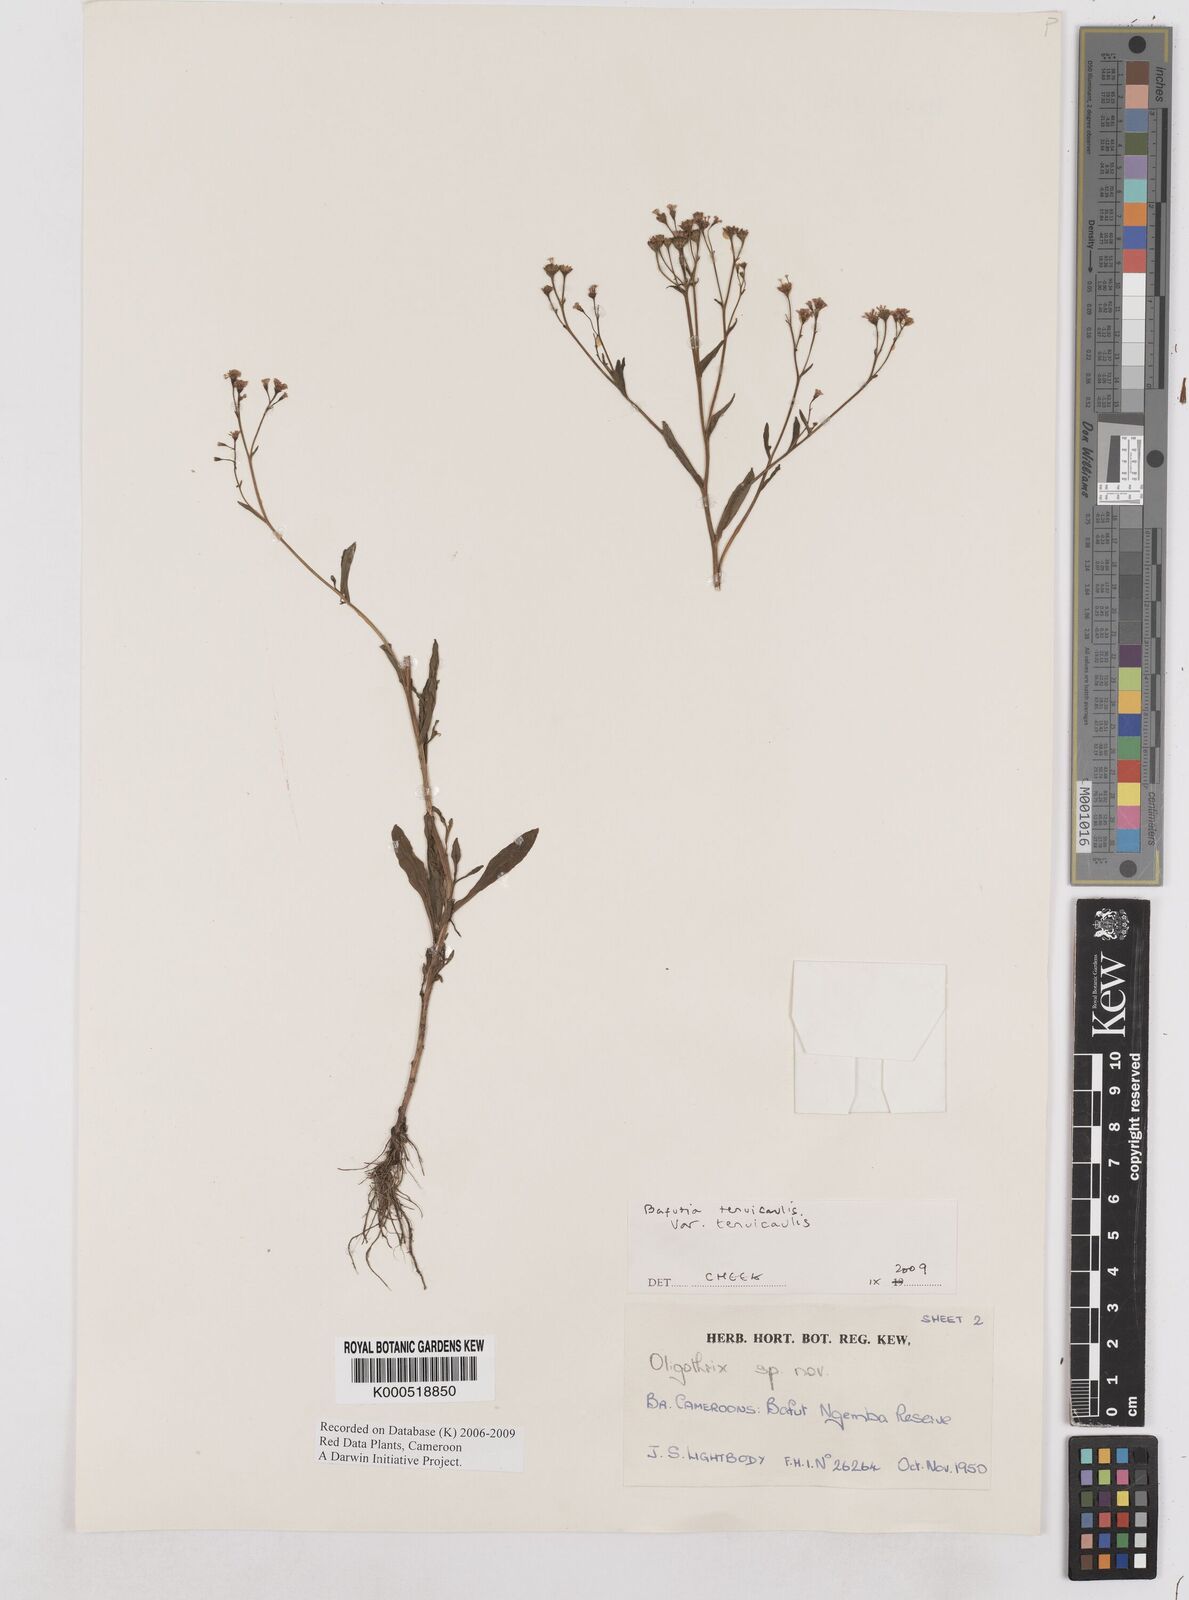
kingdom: Plantae
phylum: Tracheophyta
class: Magnoliopsida
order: Asterales
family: Asteraceae
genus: Emilia
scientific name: Emilia tenuicaulis
